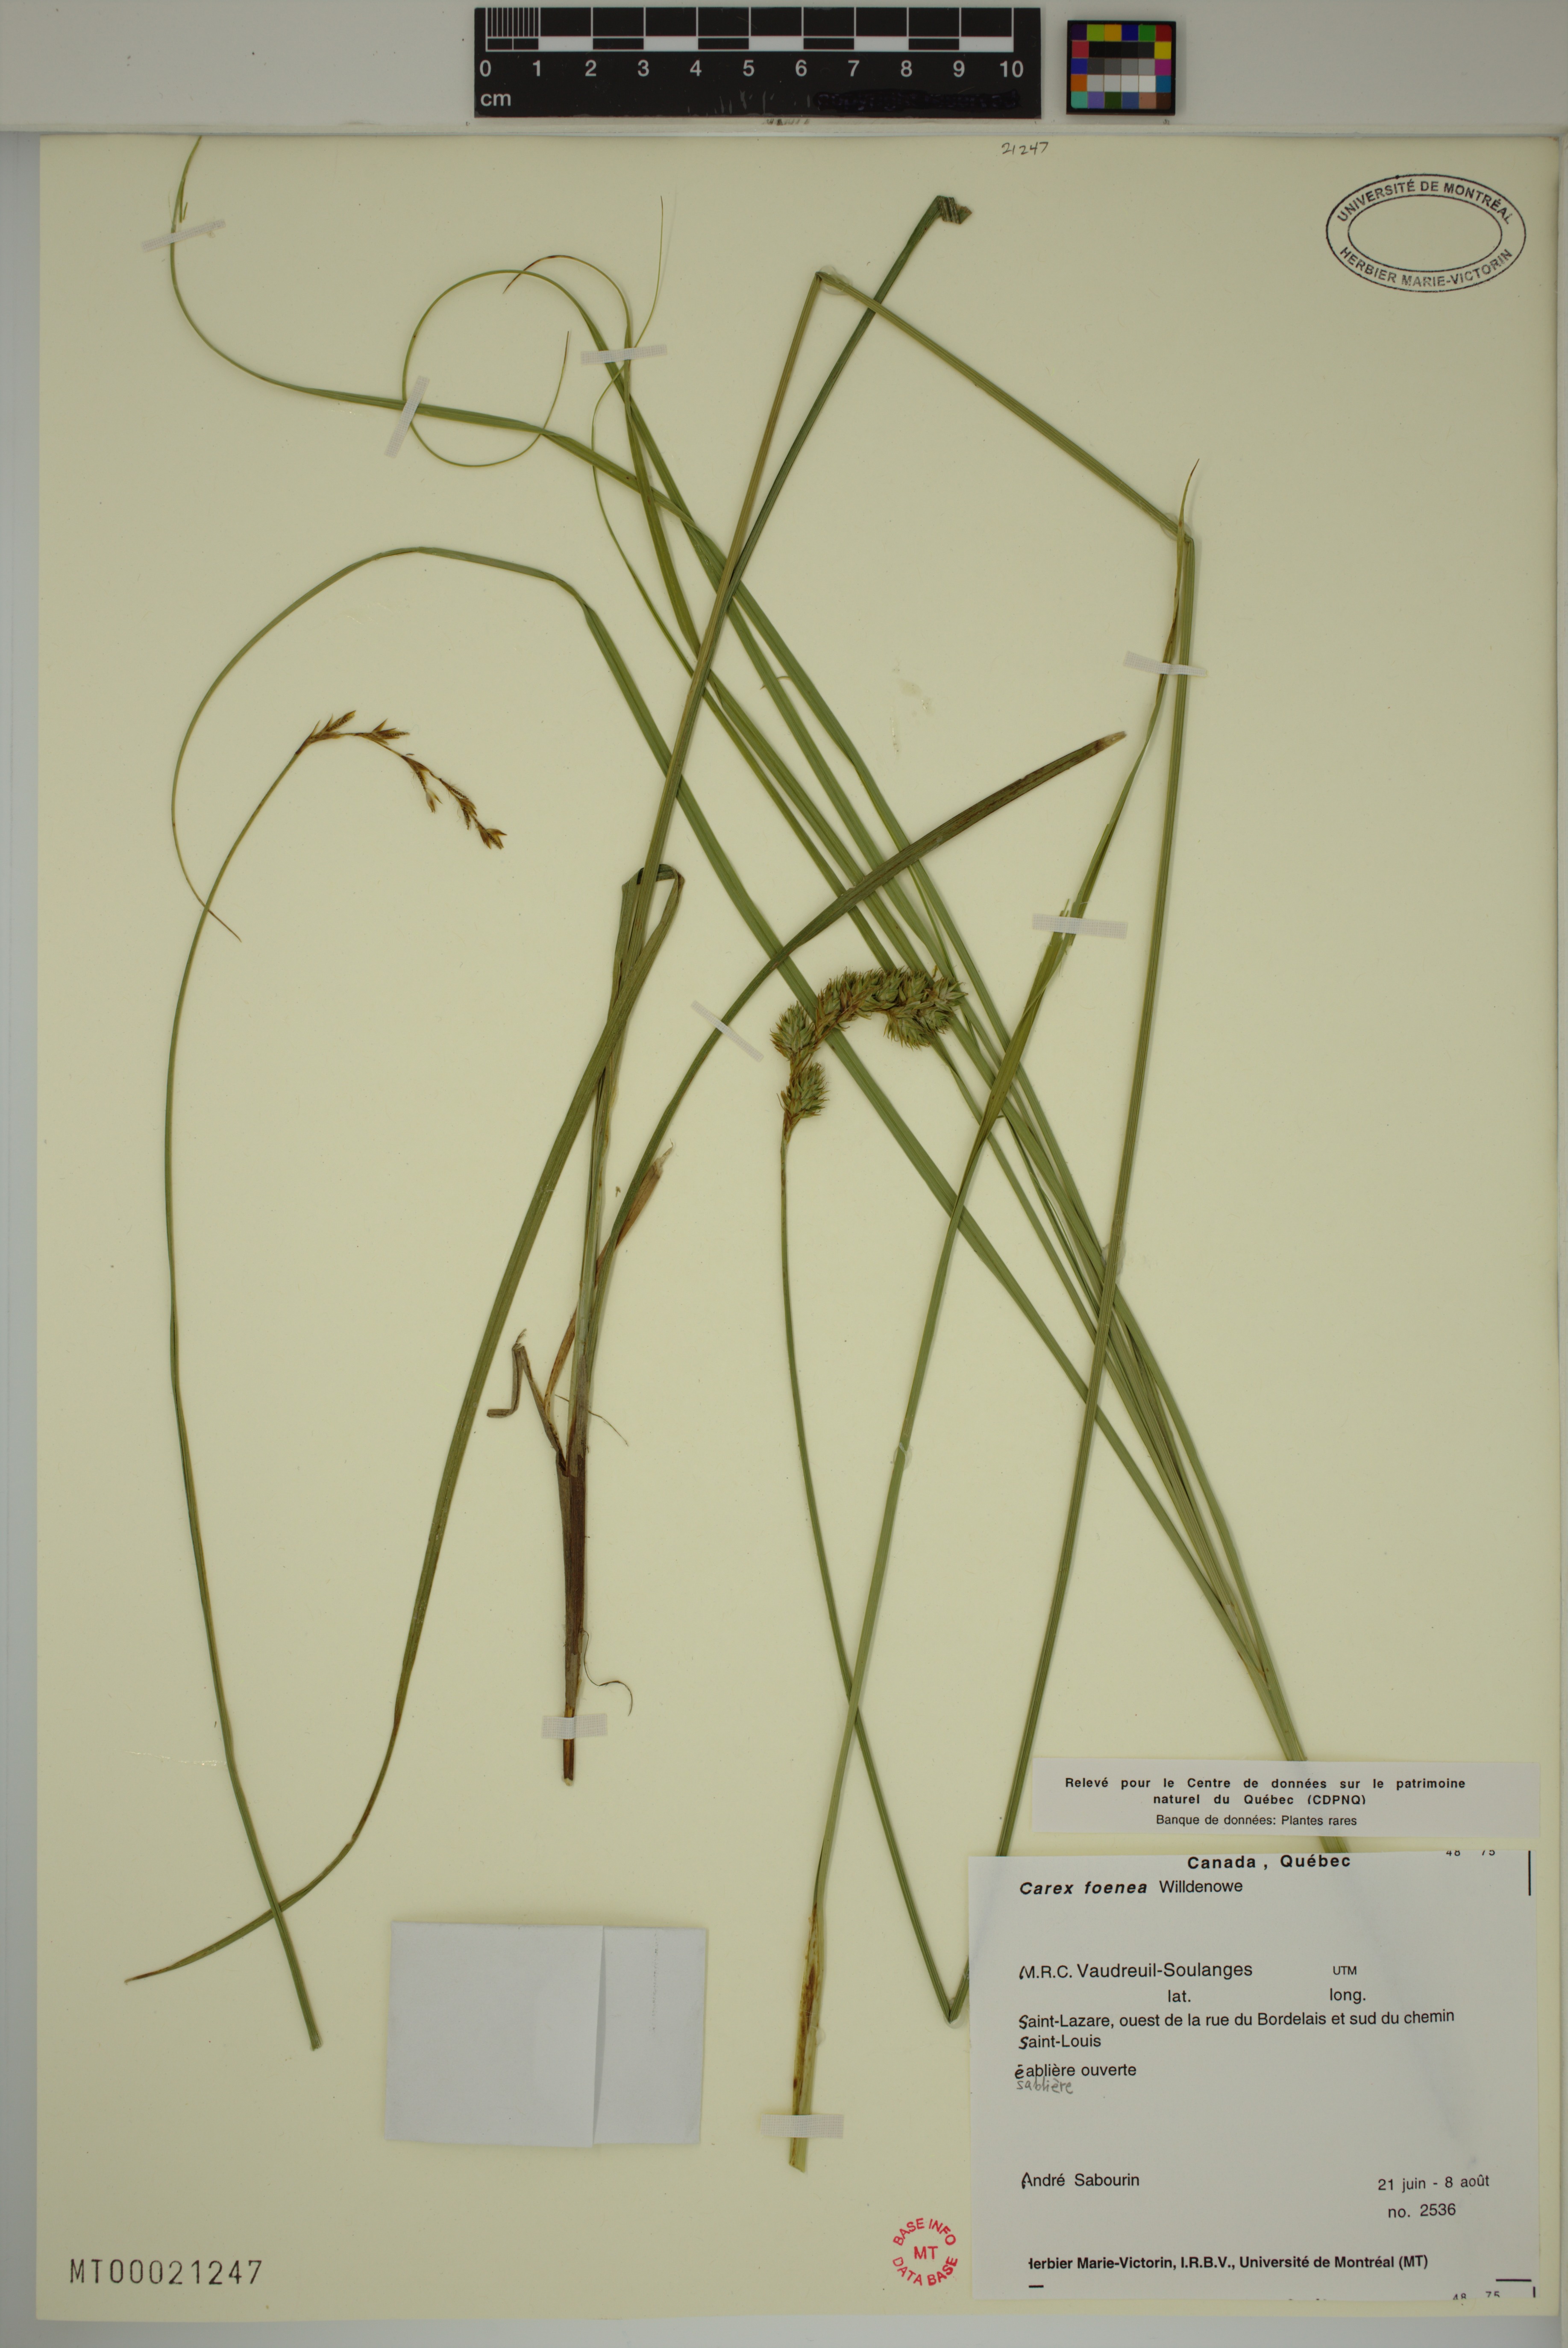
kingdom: Plantae
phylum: Tracheophyta
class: Liliopsida
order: Poales
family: Cyperaceae
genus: Carex
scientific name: Carex foenea
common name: Bronze sedge
